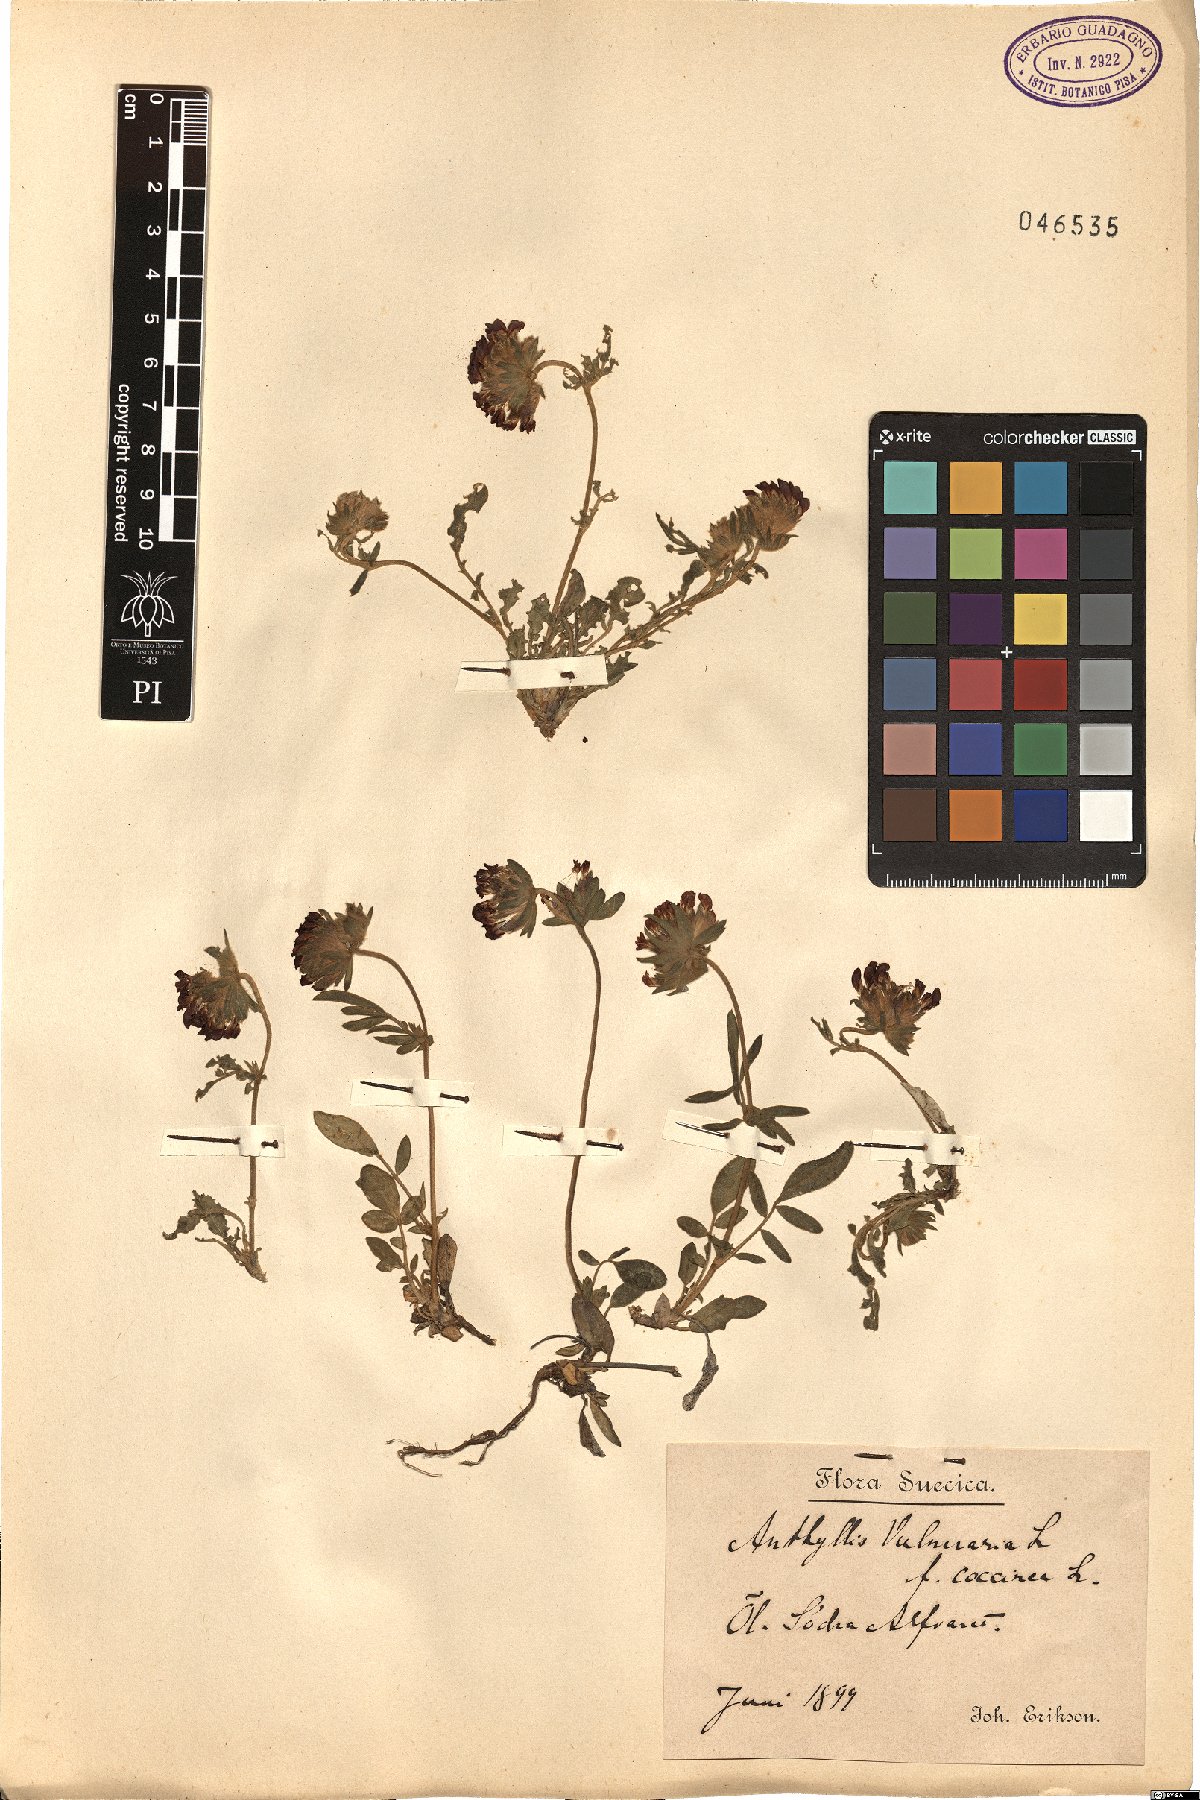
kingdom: Plantae
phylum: Tracheophyta
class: Magnoliopsida
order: Fabales
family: Fabaceae
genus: Anthyllis
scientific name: Anthyllis vulneraria
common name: Kidney vetch
